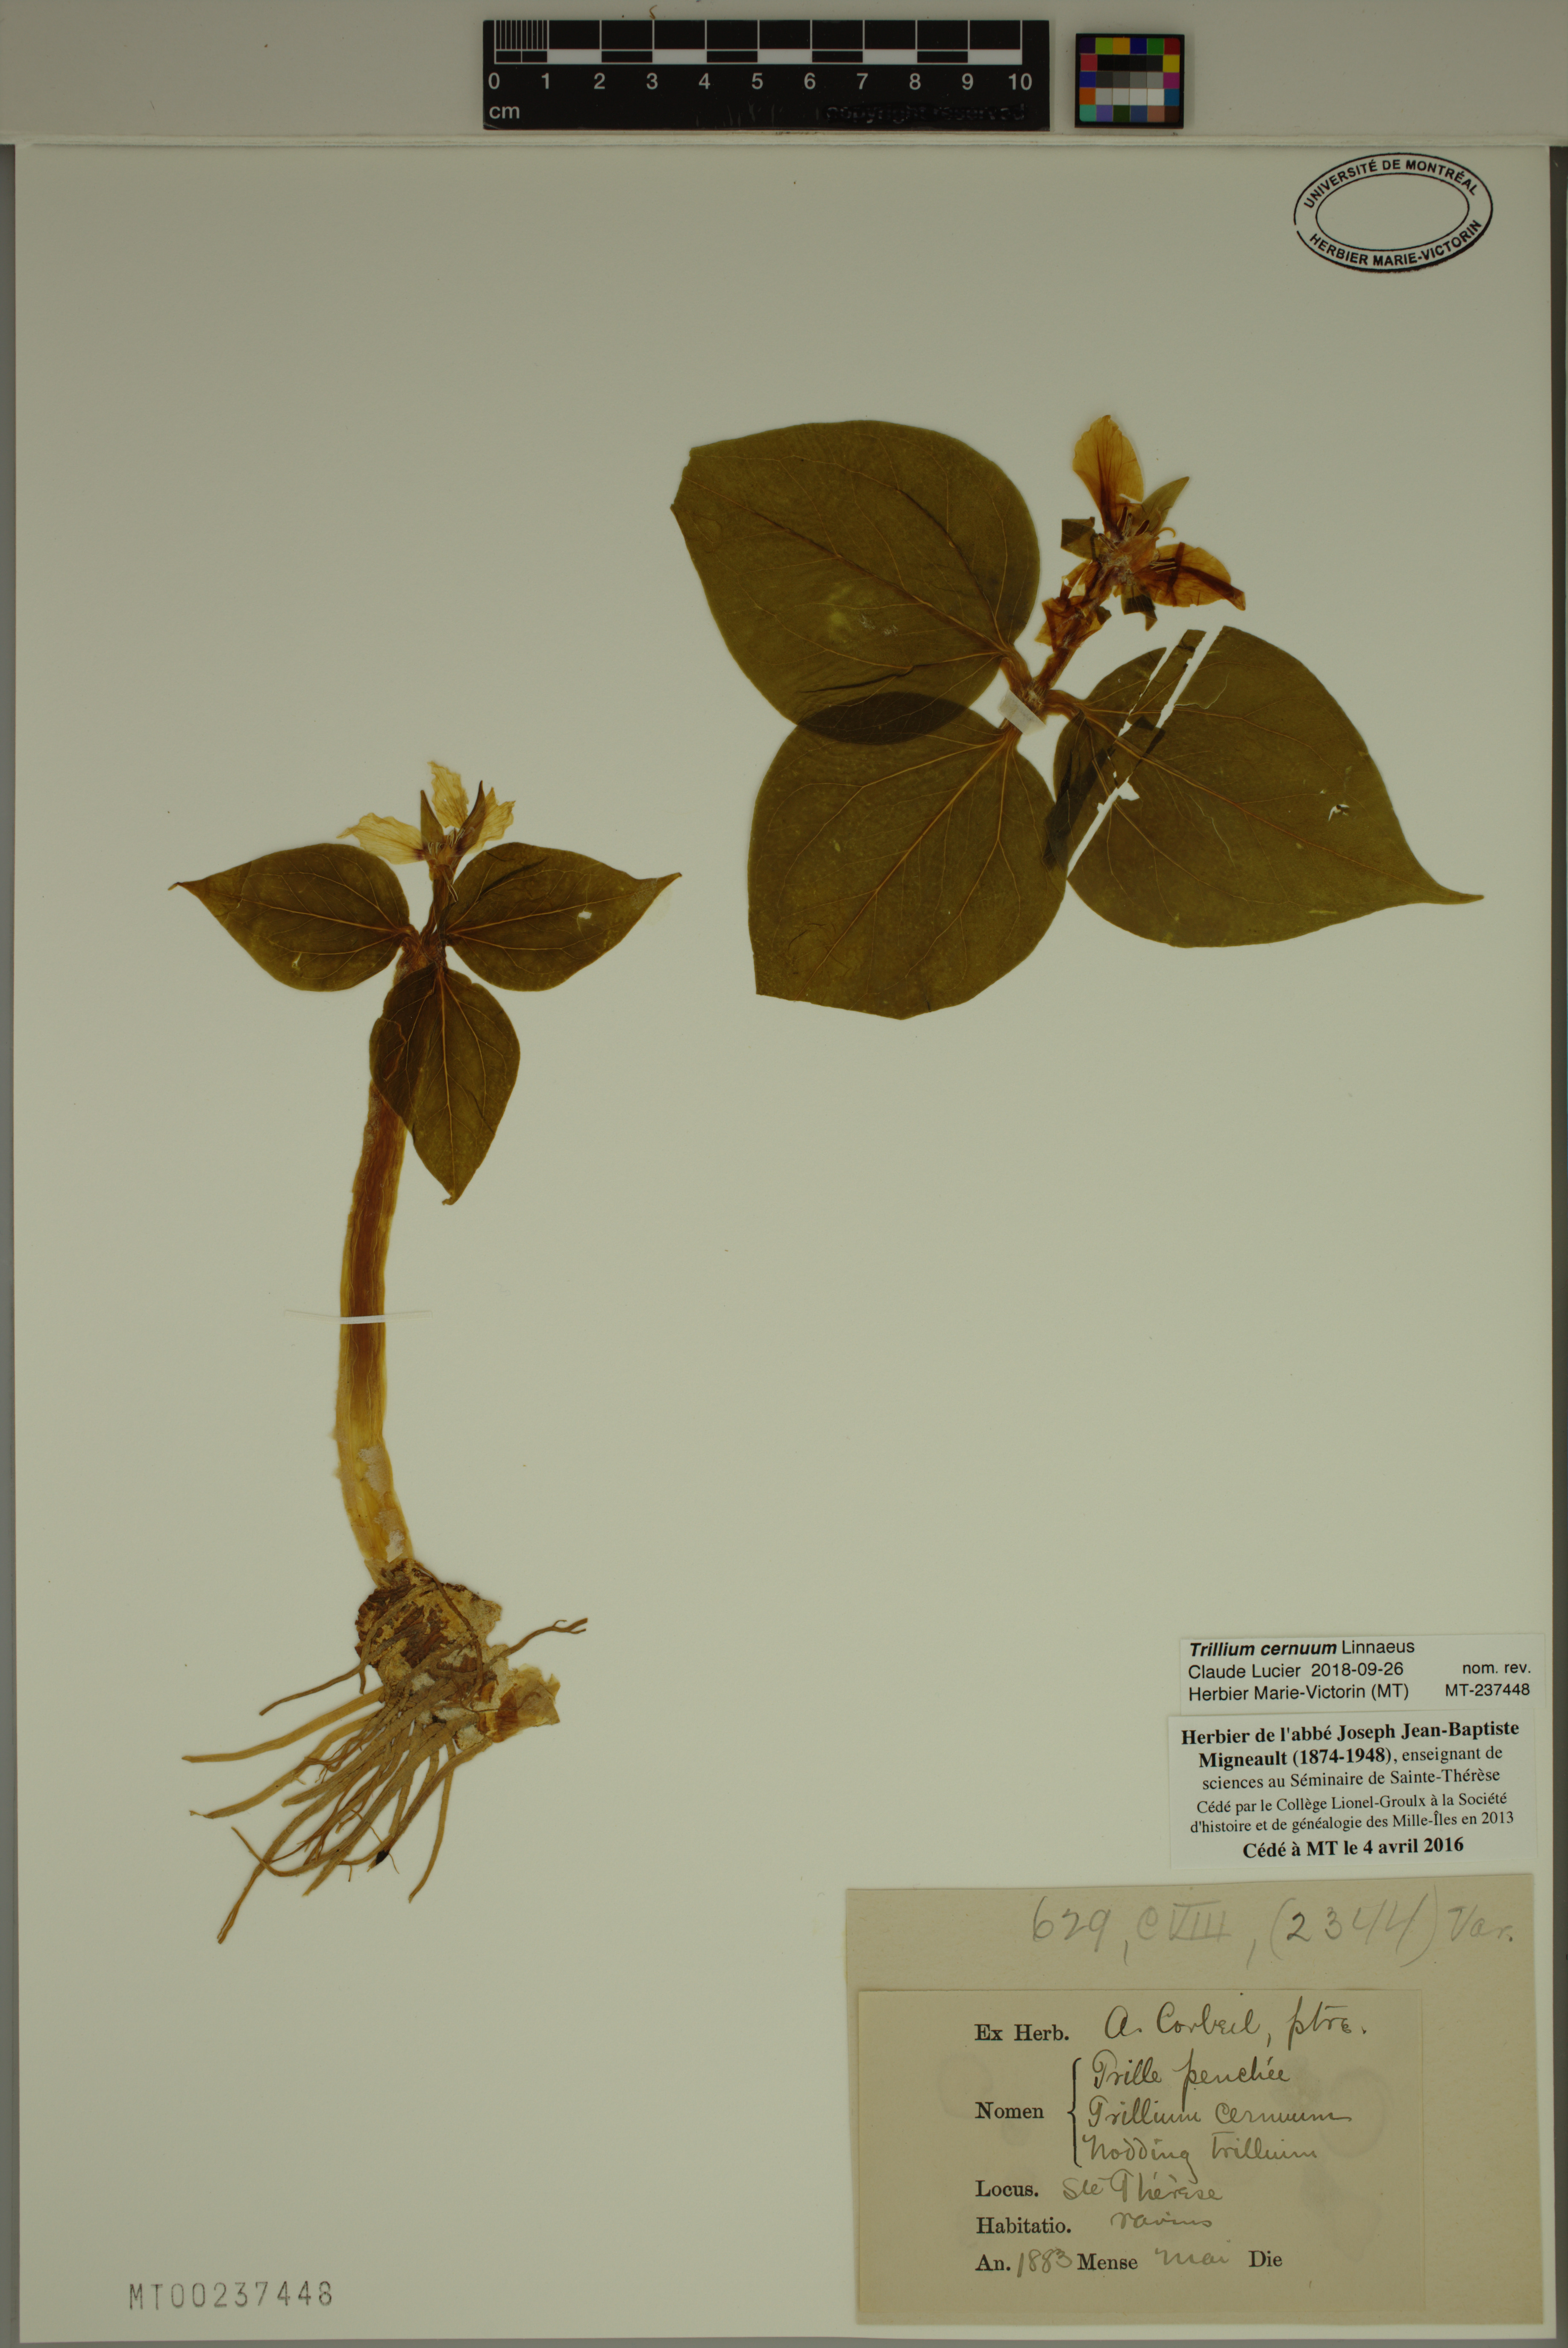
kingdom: Plantae
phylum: Tracheophyta
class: Liliopsida
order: Liliales
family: Melanthiaceae
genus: Trillium
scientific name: Trillium cernuum
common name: Nodding trillium
